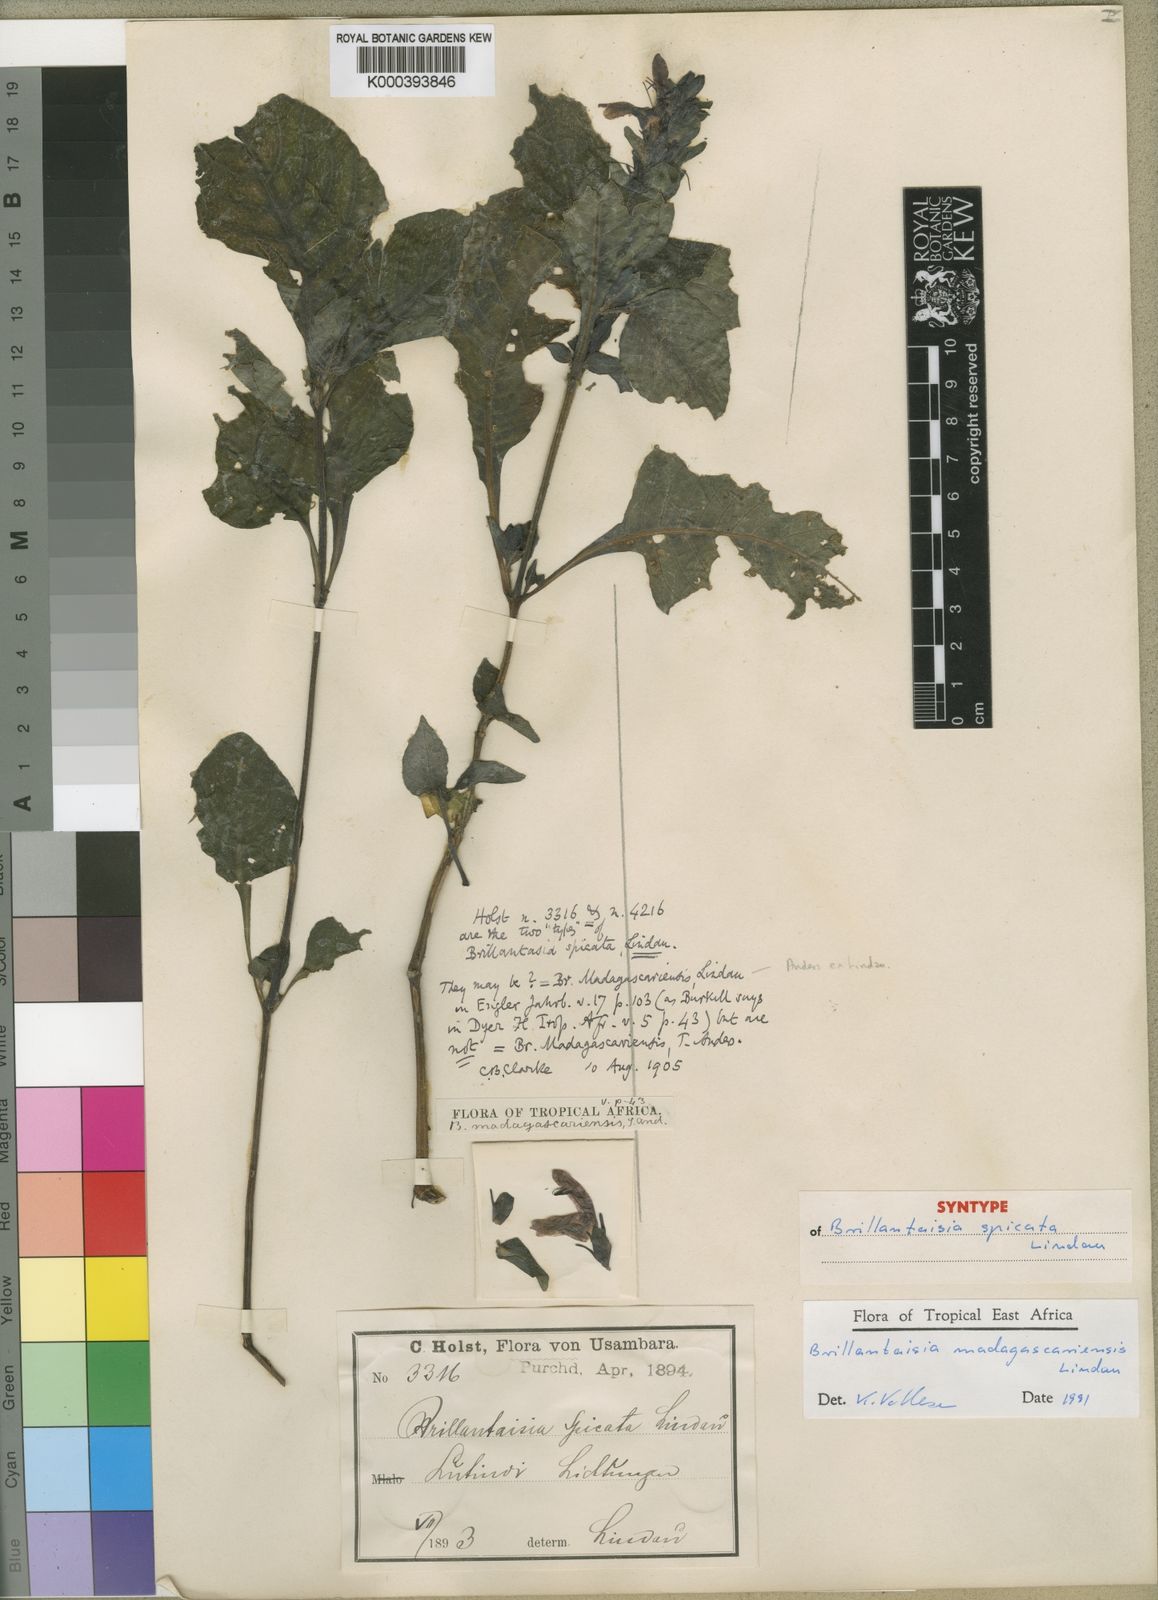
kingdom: Plantae
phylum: Tracheophyta
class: Magnoliopsida
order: Lamiales
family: Acanthaceae
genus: Brillantaisia
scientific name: Brillantaisia madagascariensis
